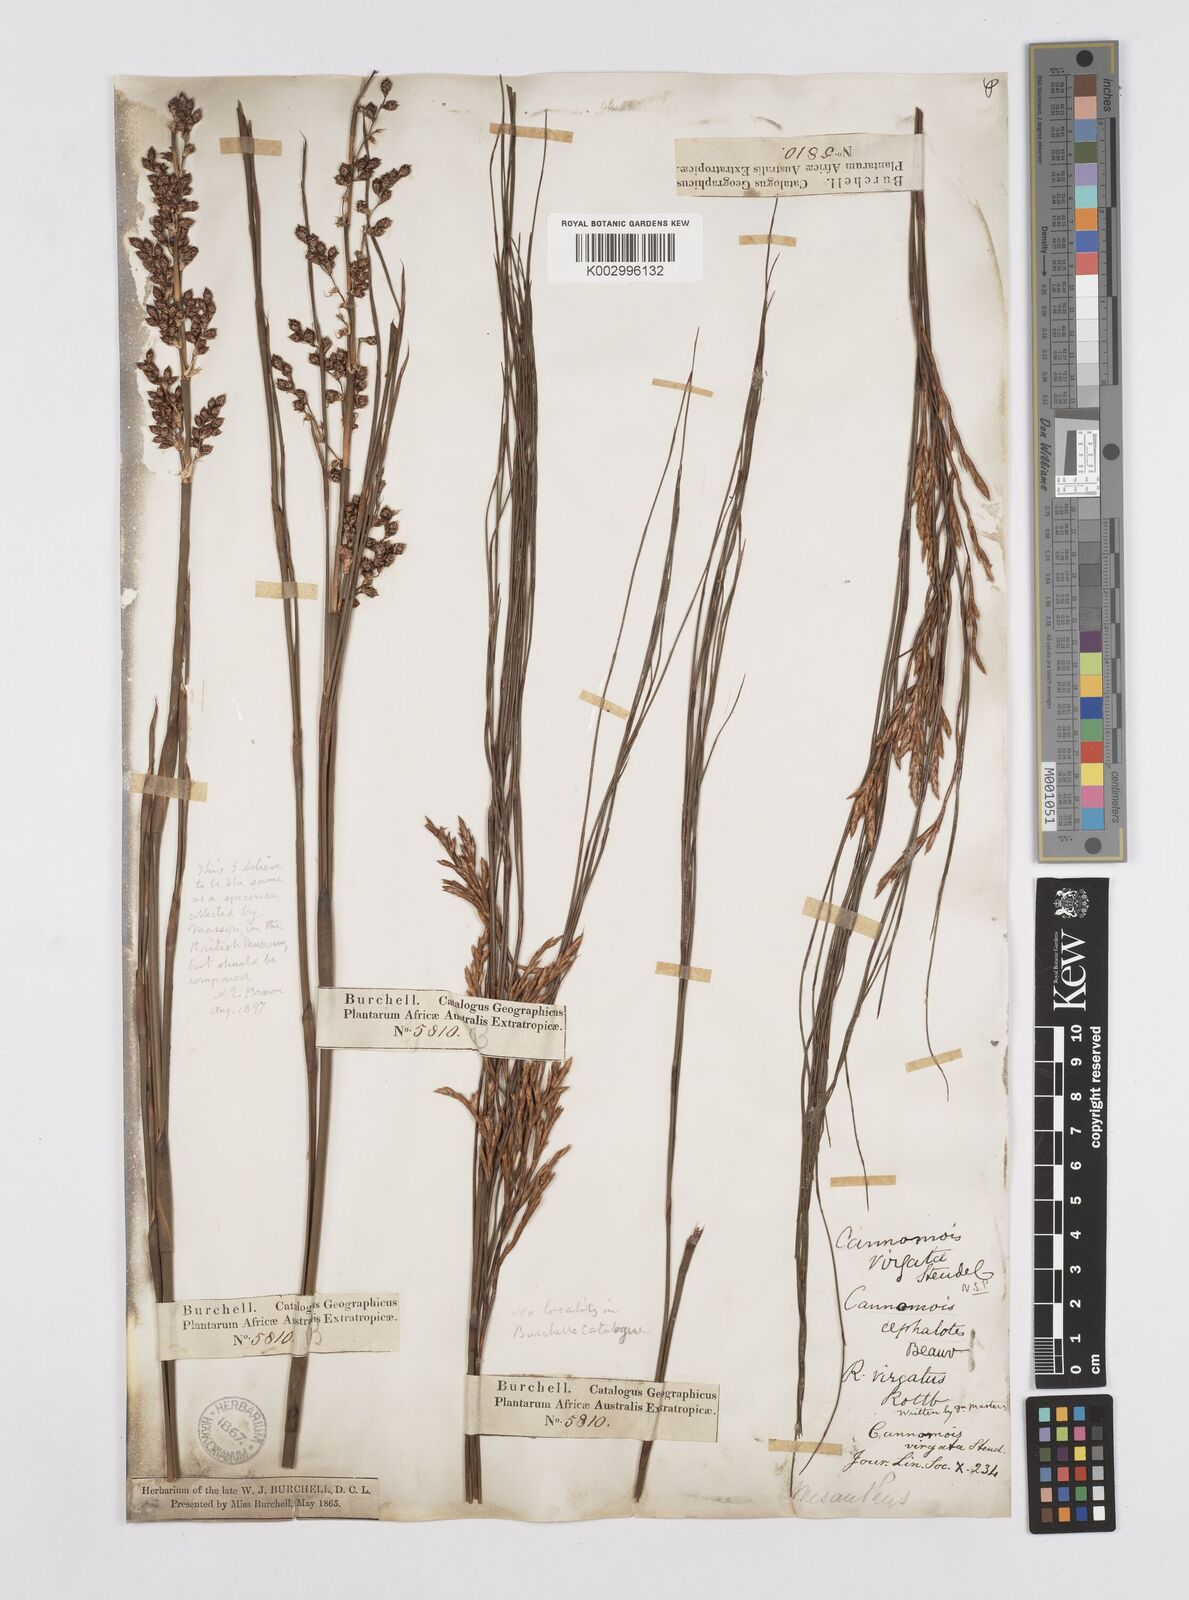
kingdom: Plantae
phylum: Tracheophyta
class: Liliopsida
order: Poales
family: Restionaceae
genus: Cannomois
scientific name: Cannomois virgata
